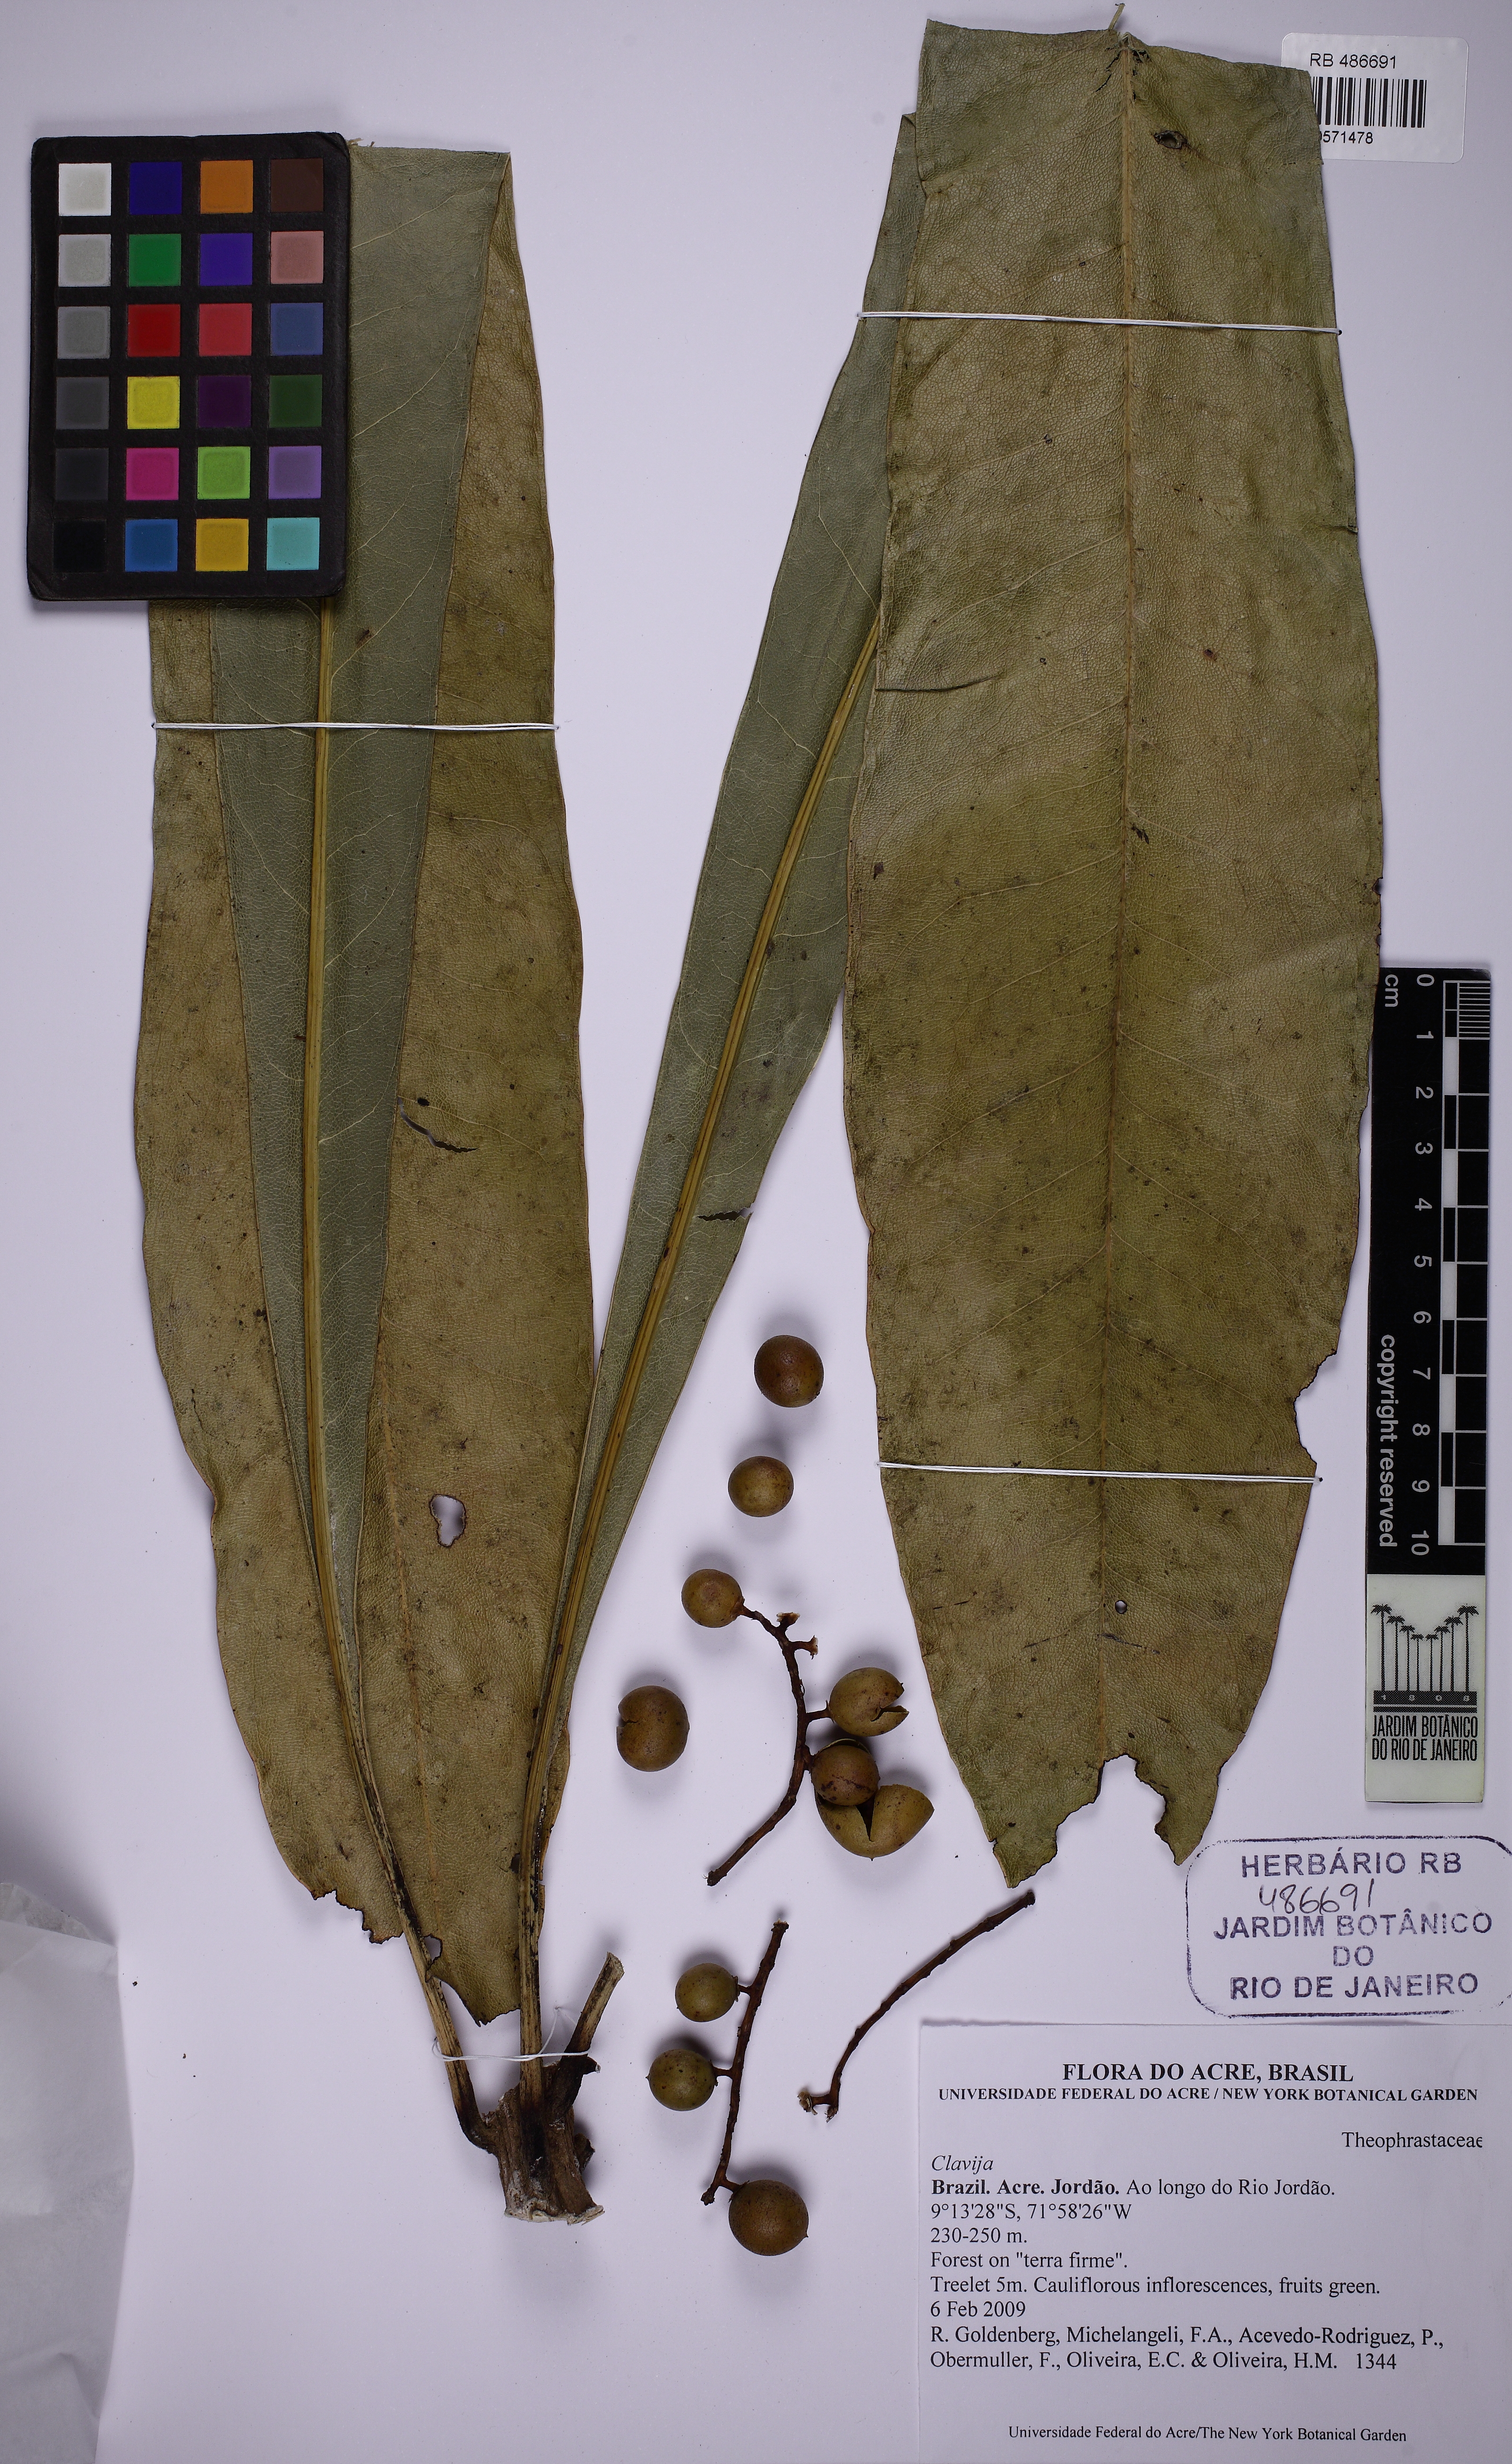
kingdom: Plantae
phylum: Tracheophyta
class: Magnoliopsida
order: Ericales
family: Primulaceae
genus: Clavija
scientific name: Clavija
